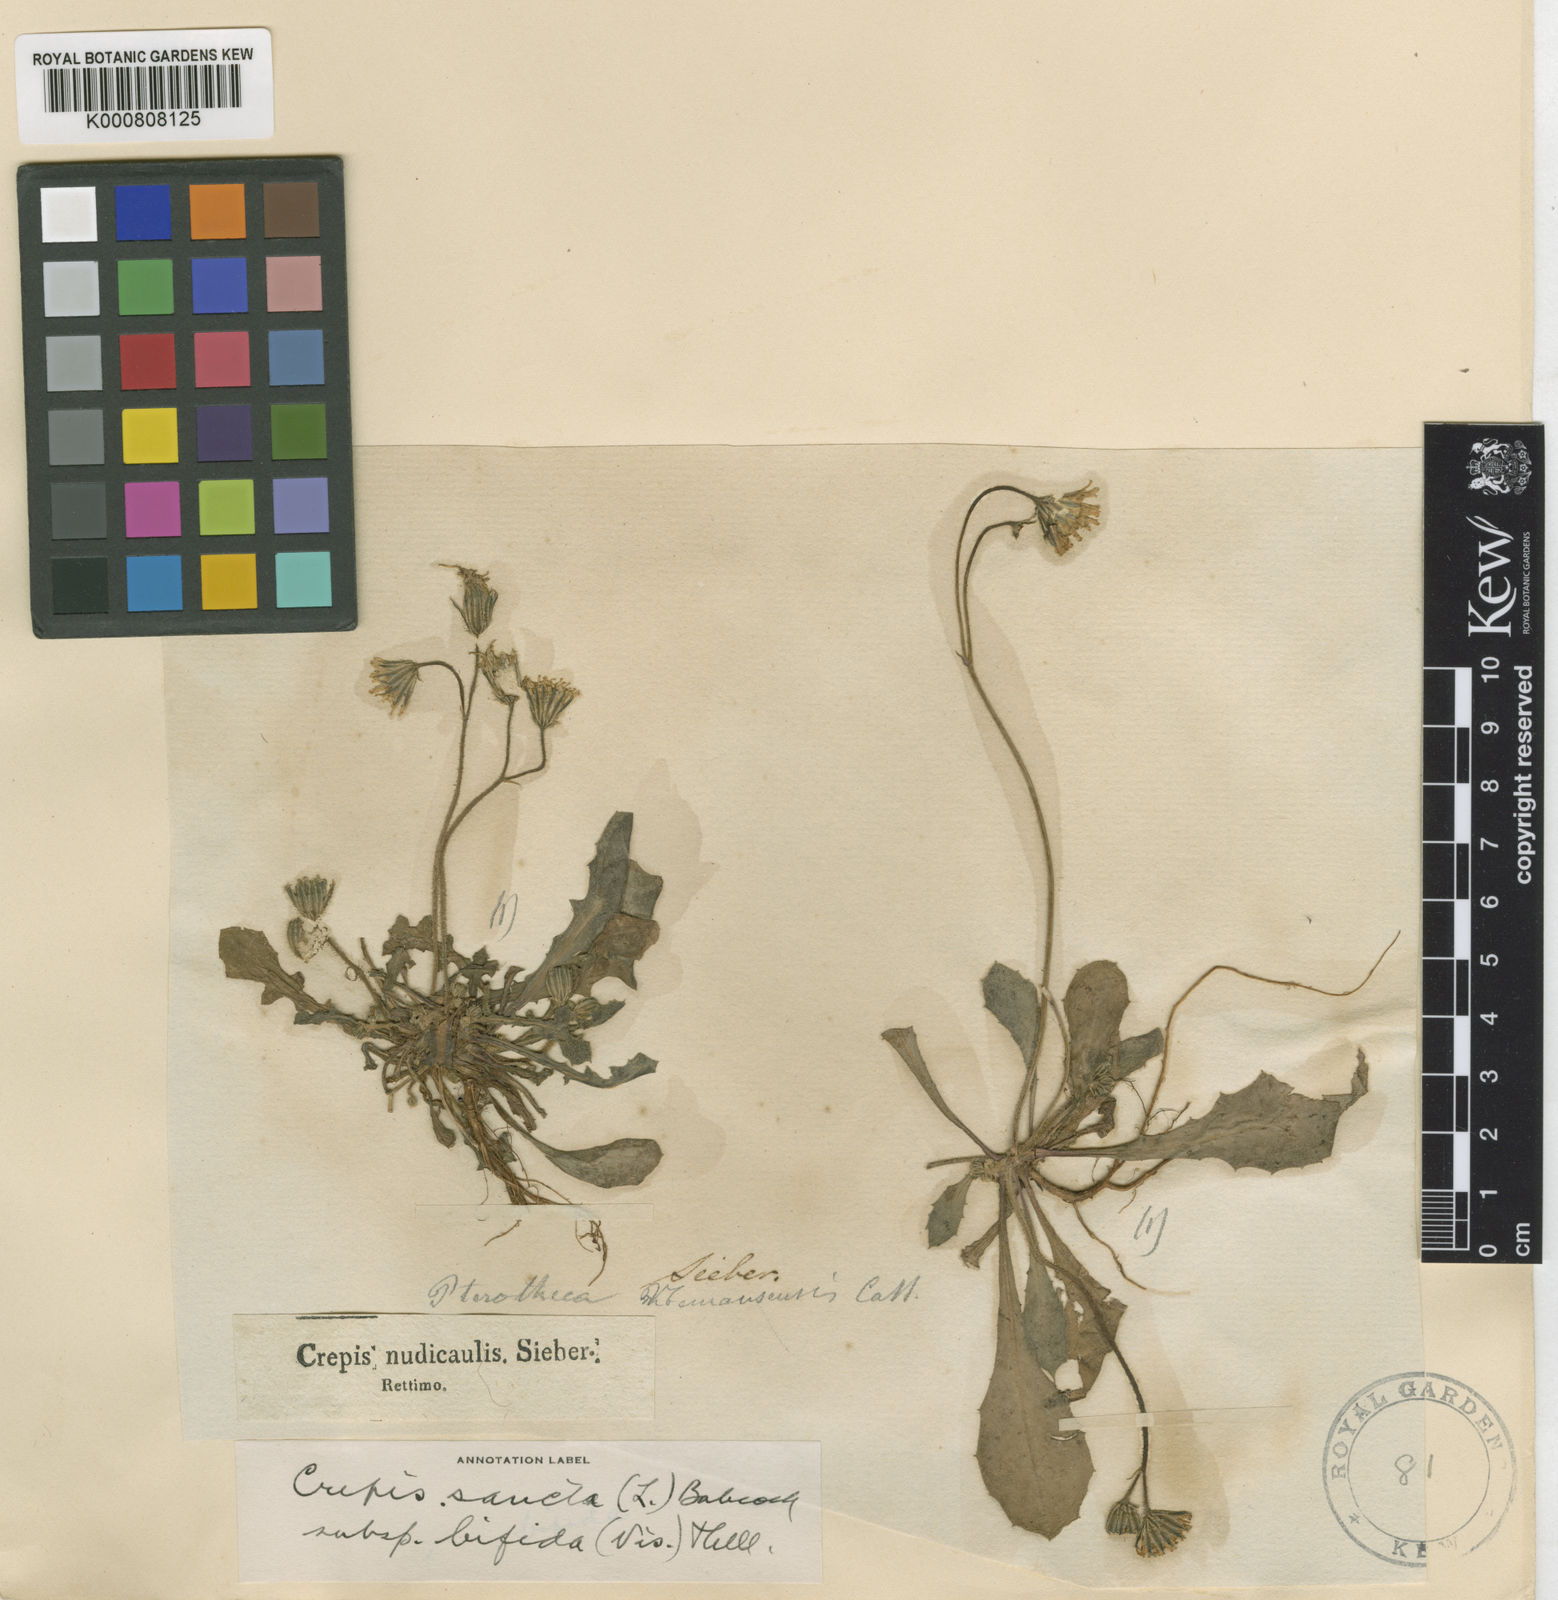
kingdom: Plantae
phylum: Tracheophyta
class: Magnoliopsida
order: Asterales
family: Asteraceae
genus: Crepis
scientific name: Crepis sancta
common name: Hawk's-beard
